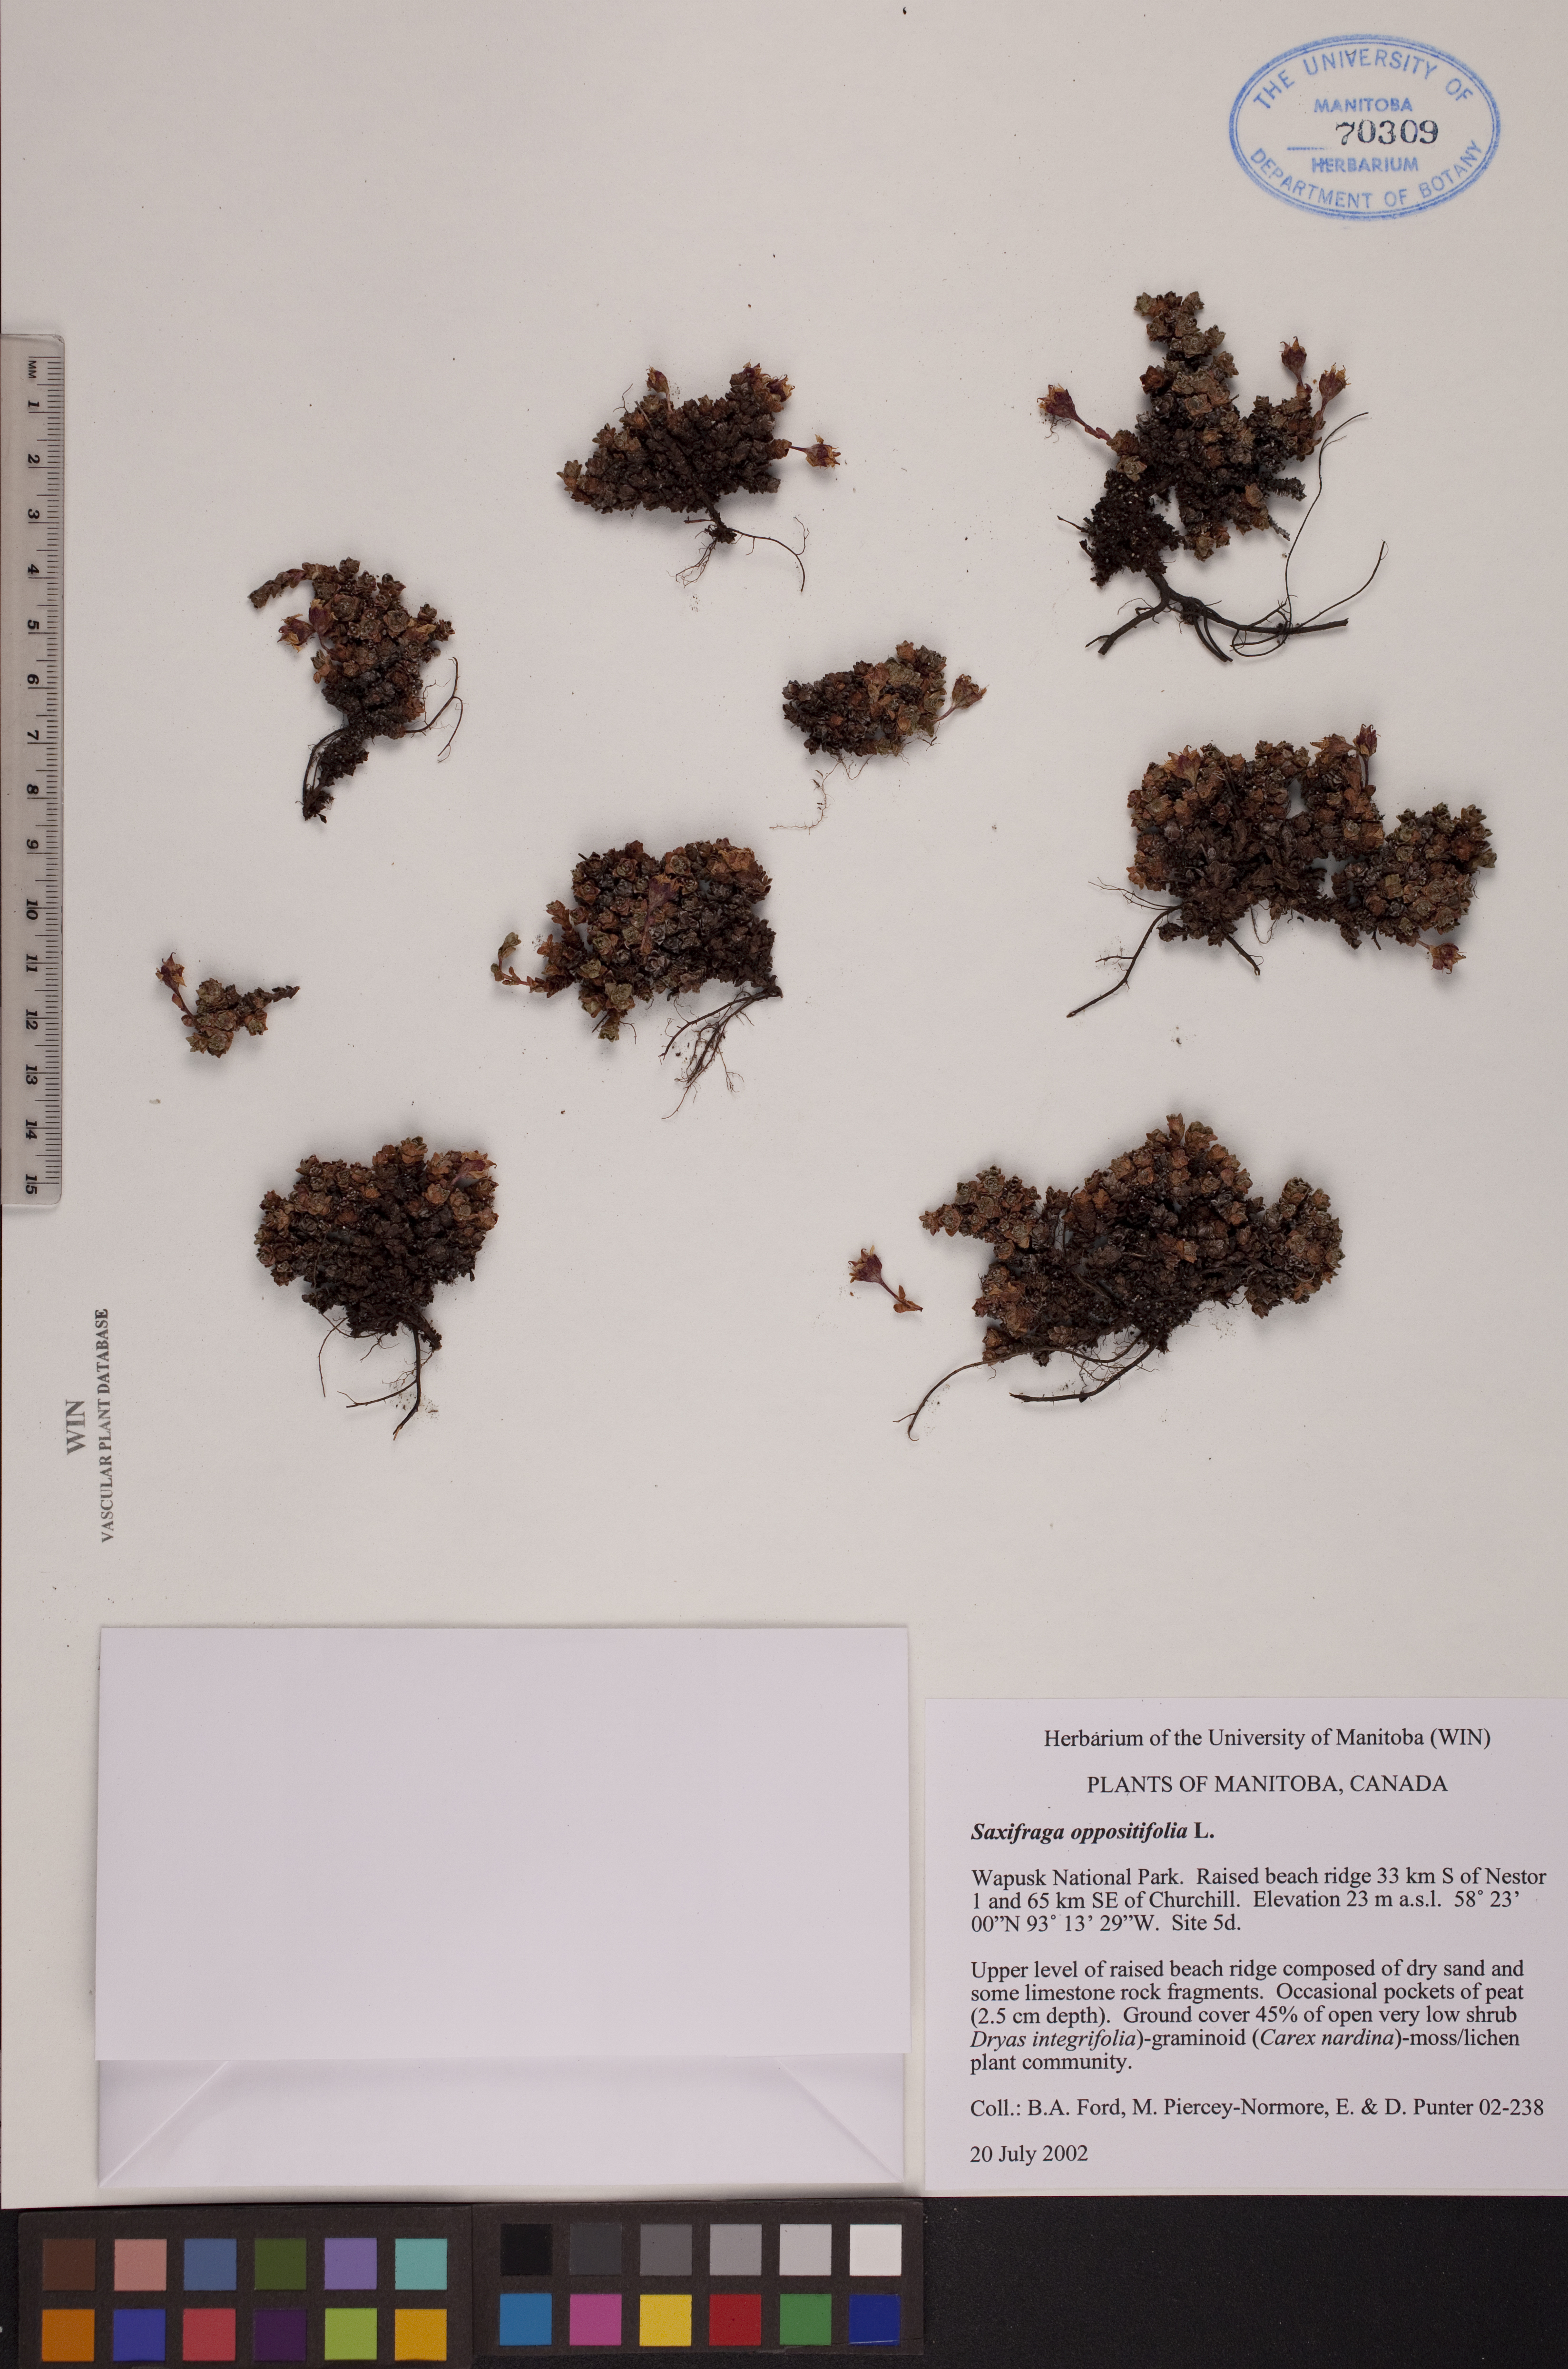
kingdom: Plantae
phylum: Tracheophyta
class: Magnoliopsida
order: Saxifragales
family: Saxifragaceae
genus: Saxifraga
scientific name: Saxifraga oppositifolia
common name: Purple saxifrage
